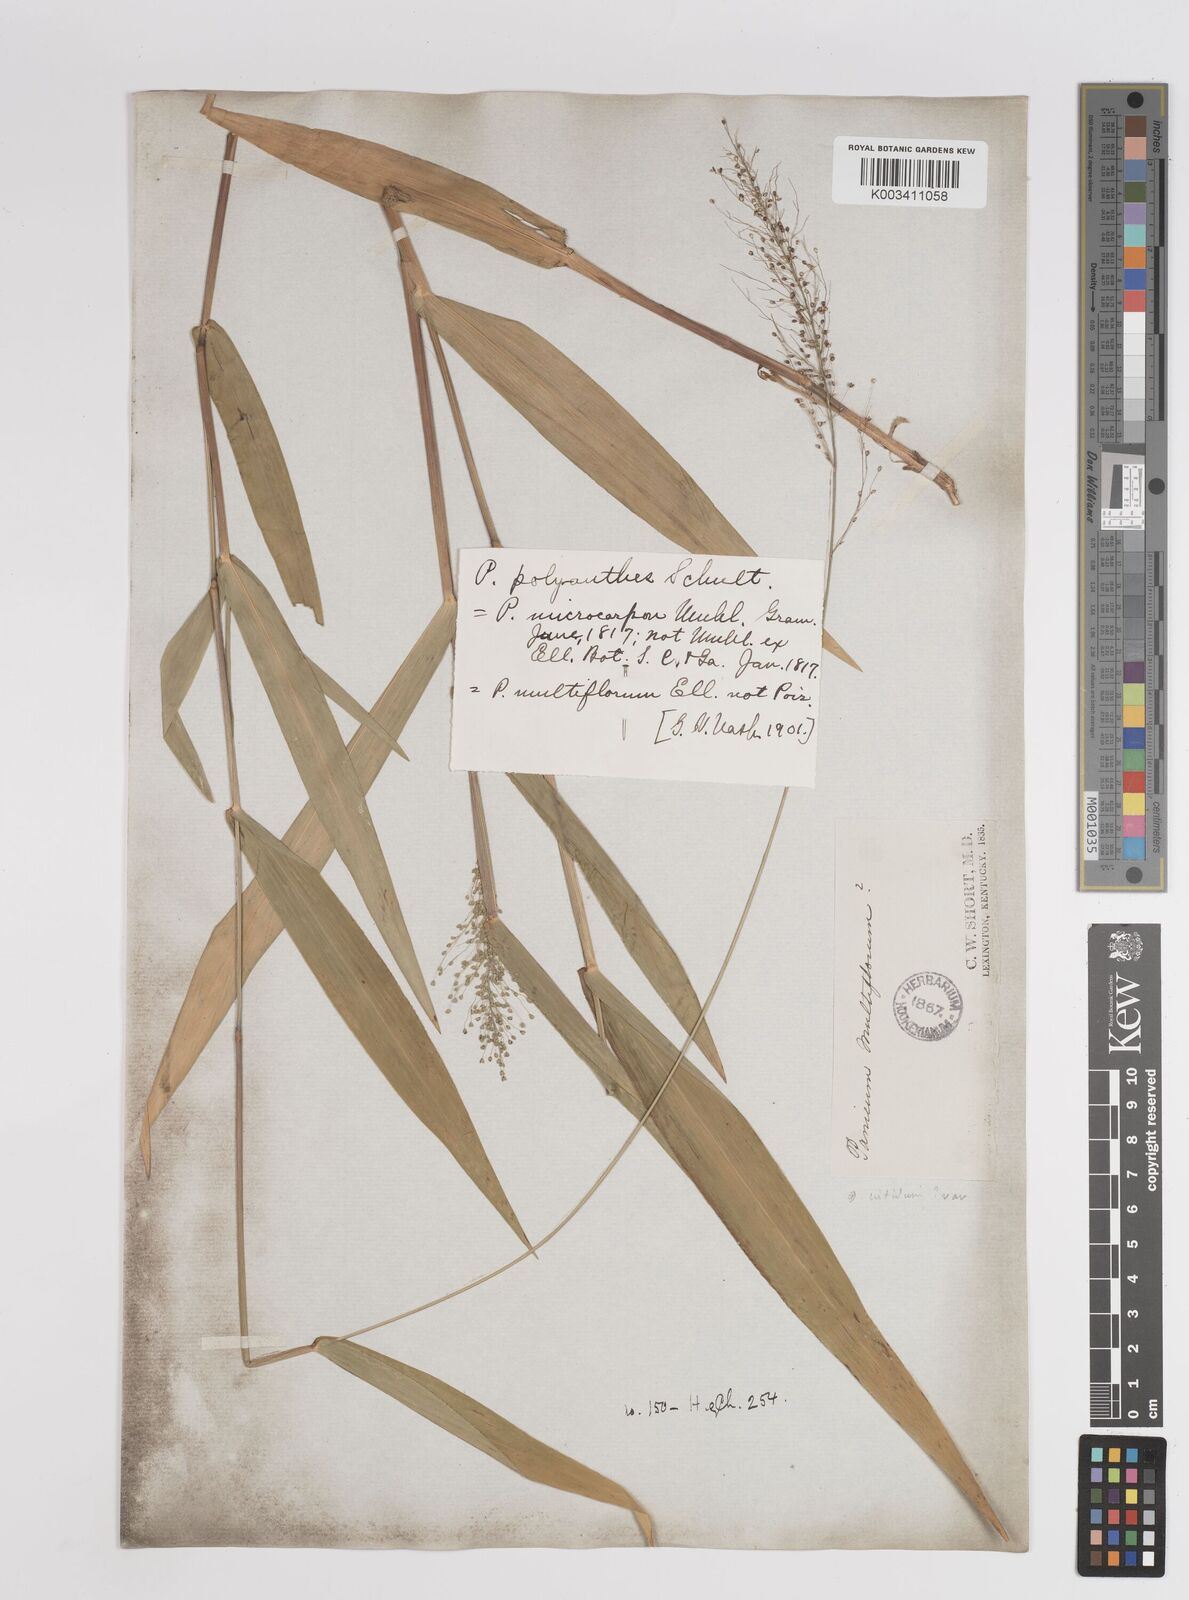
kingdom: Plantae
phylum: Tracheophyta
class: Liliopsida
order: Poales
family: Poaceae
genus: Dichanthelium
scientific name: Dichanthelium polyanthes
